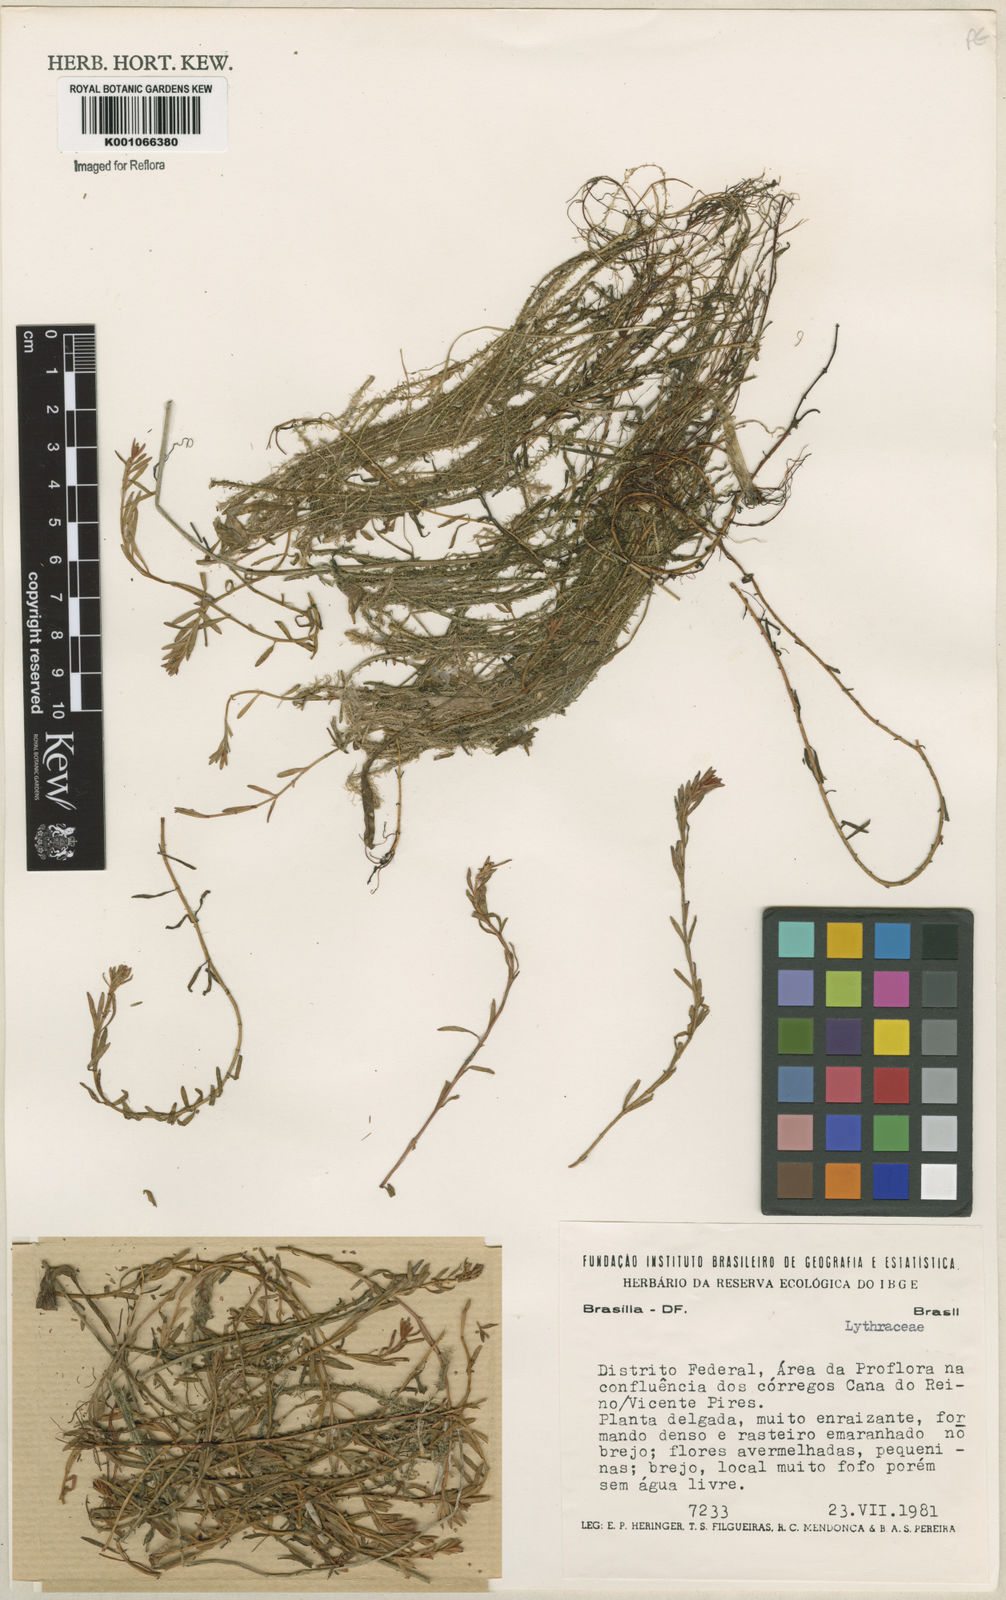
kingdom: Plantae
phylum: Tracheophyta
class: Magnoliopsida
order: Myrtales
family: Lythraceae
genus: Rotala
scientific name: Rotala ramosior
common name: Lowland rotala
